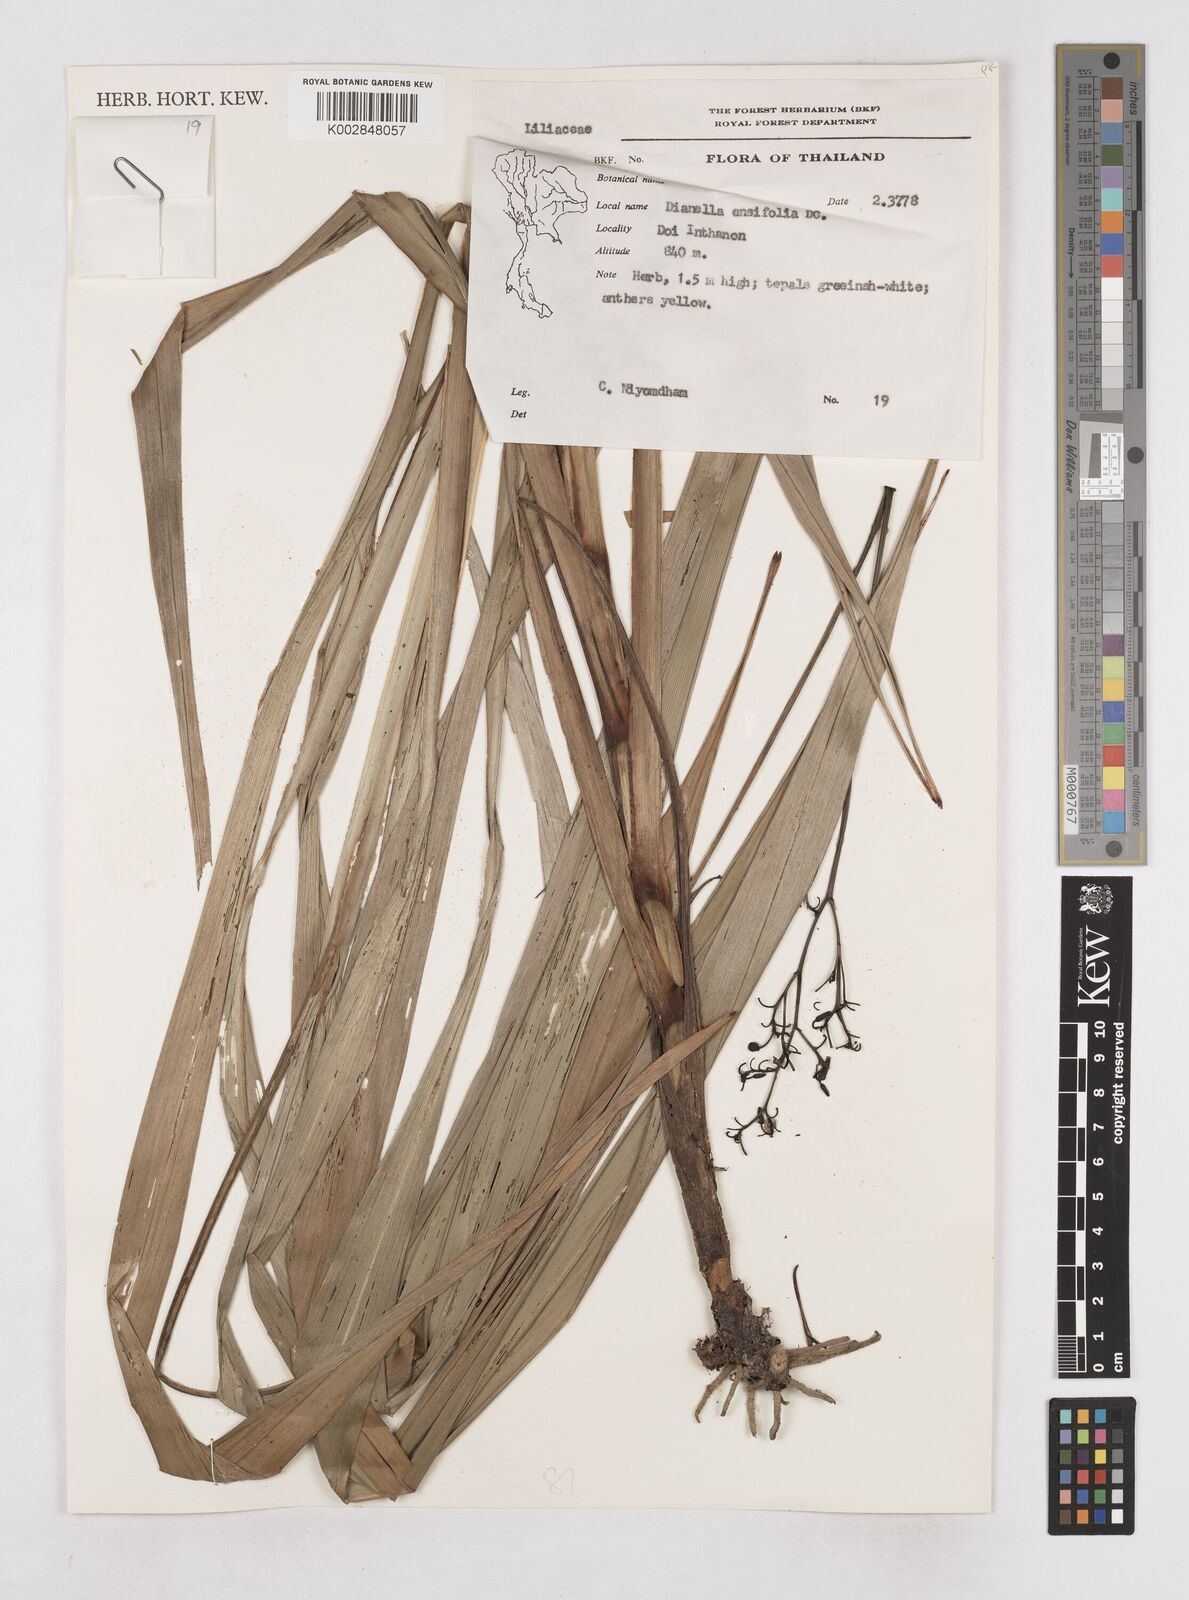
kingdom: Plantae
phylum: Tracheophyta
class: Liliopsida
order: Asparagales
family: Asphodelaceae
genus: Dianella
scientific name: Dianella ensifolia
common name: New zealand lilyplant
